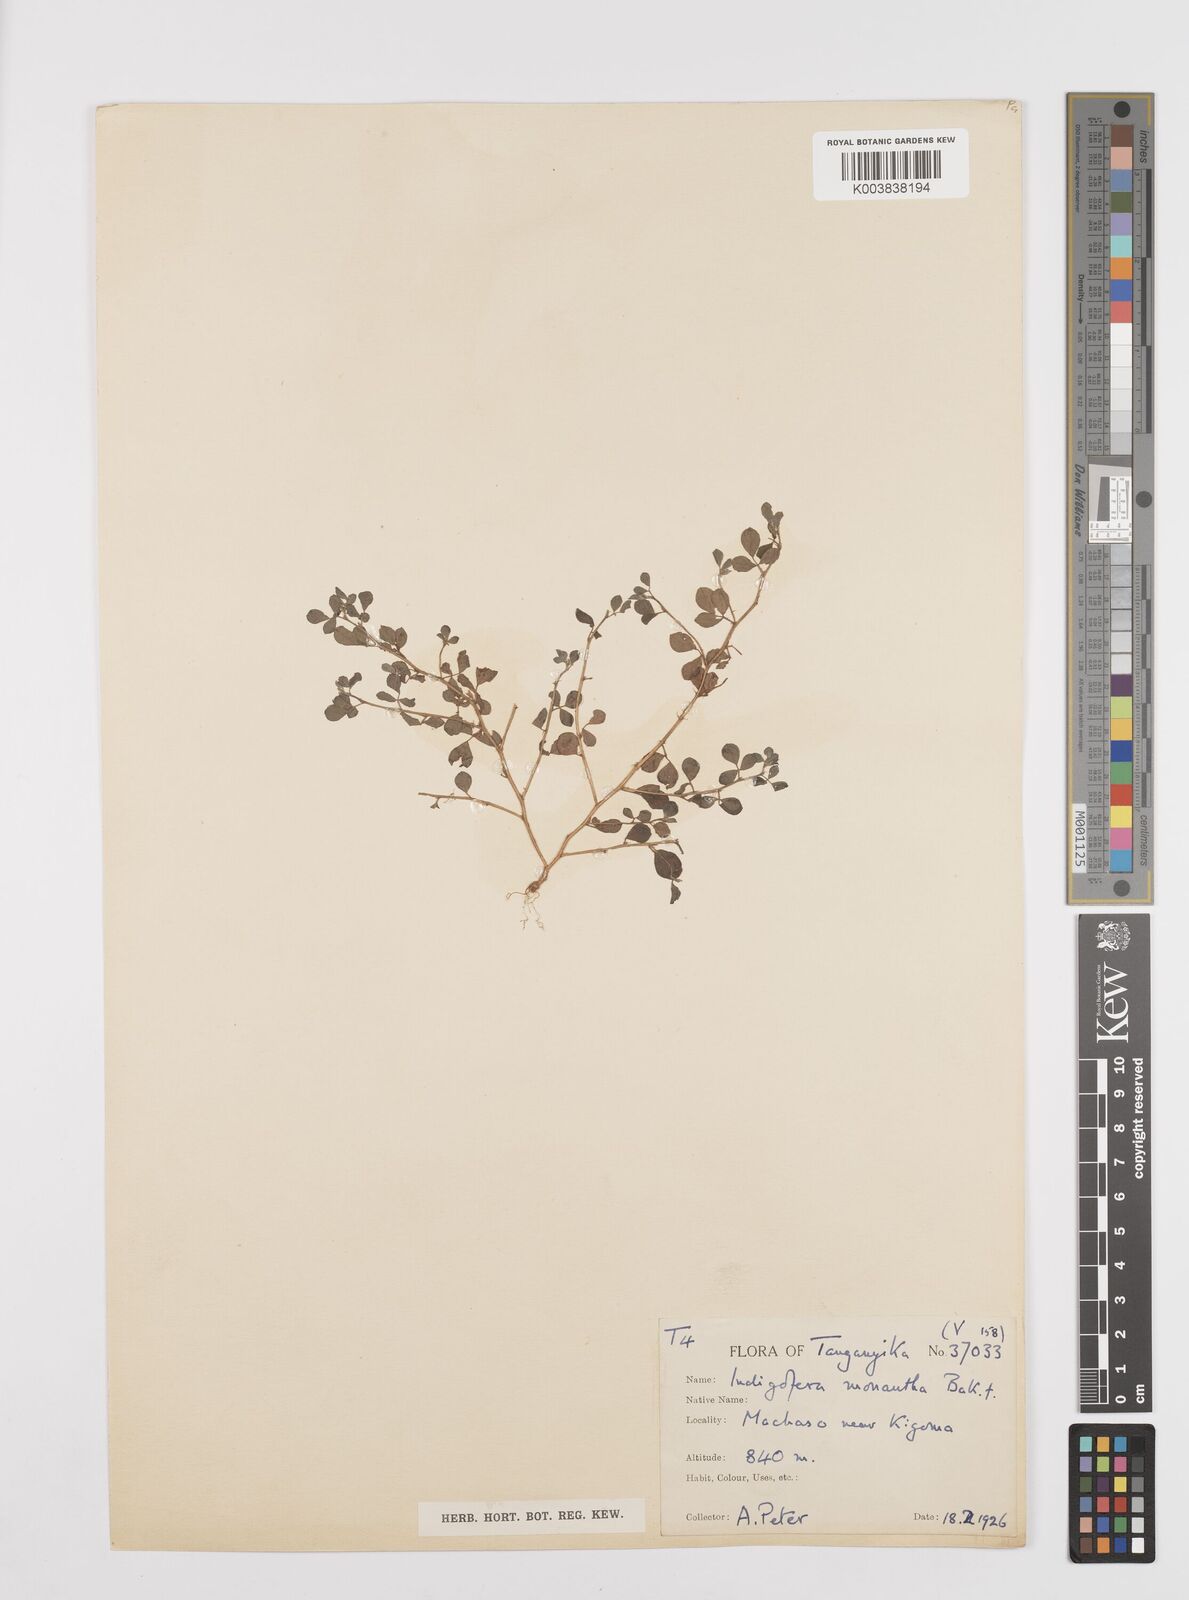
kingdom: Plantae
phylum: Tracheophyta
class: Magnoliopsida
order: Fabales
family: Fabaceae
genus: Indigofera
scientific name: Indigofera monantha
